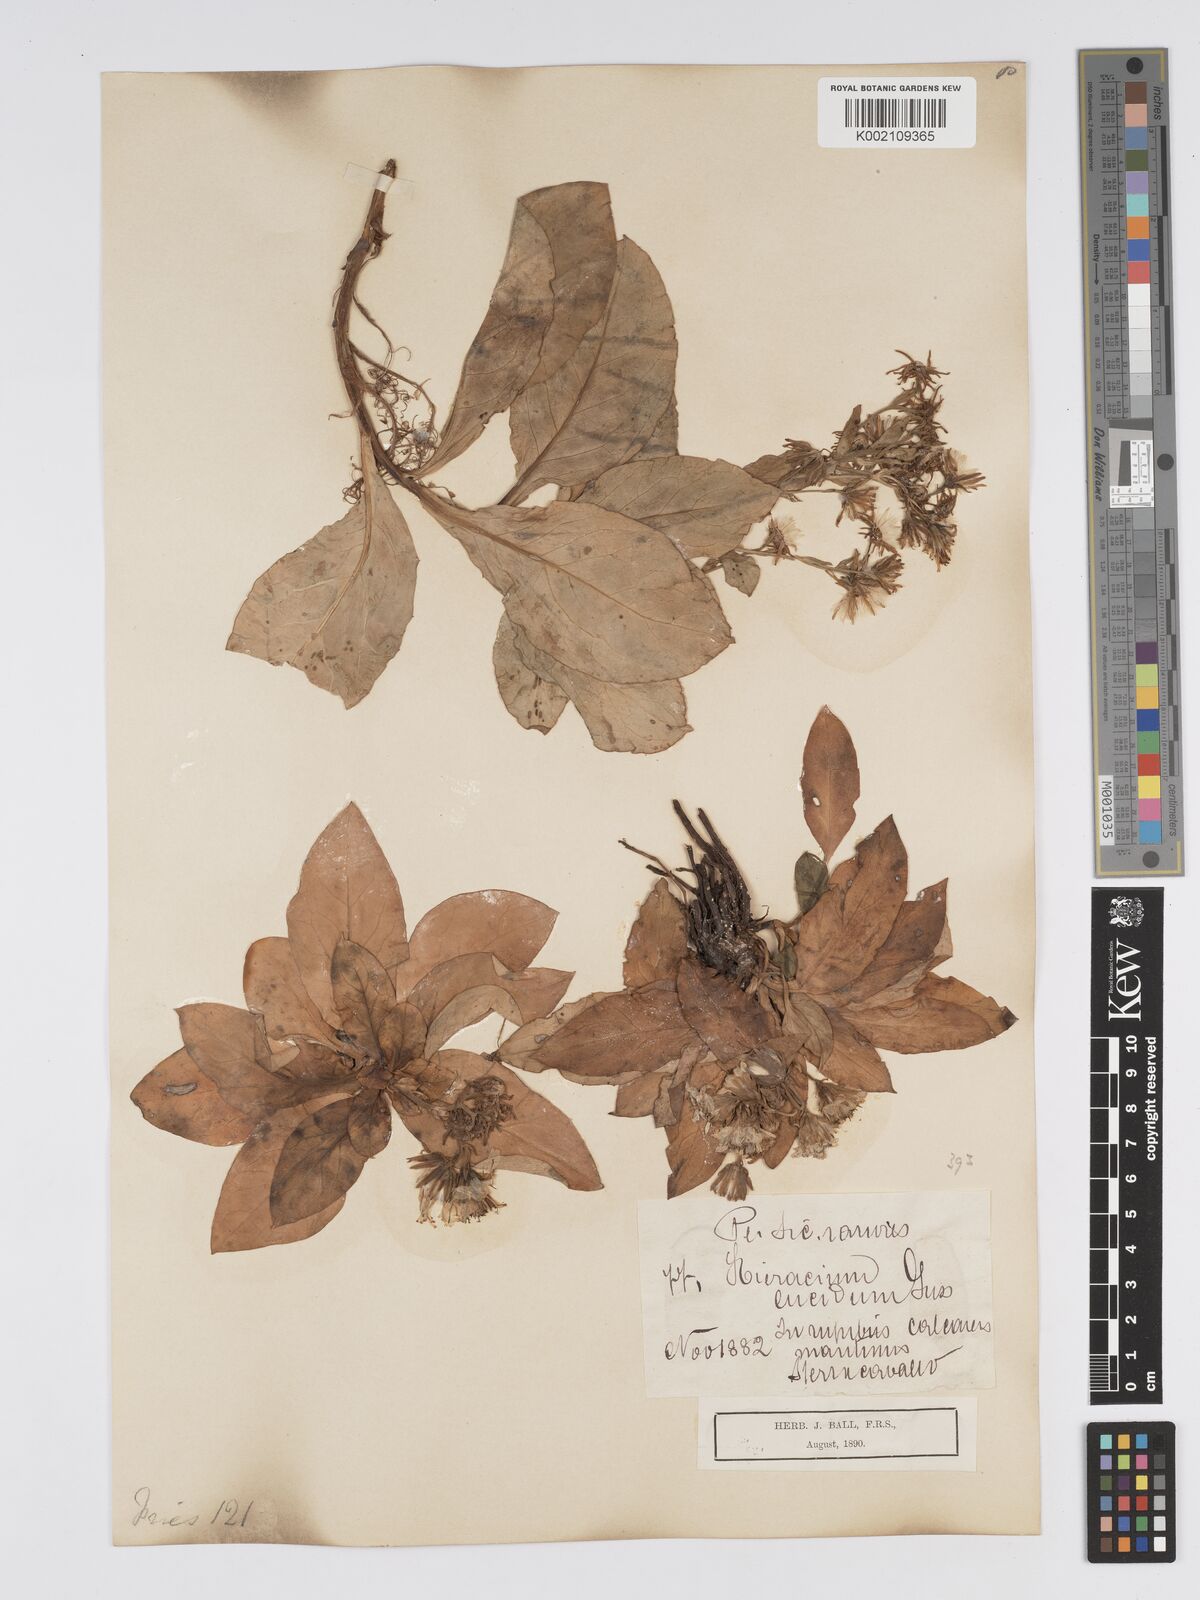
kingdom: Plantae
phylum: Tracheophyta
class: Magnoliopsida
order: Asterales
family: Asteraceae
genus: Hieracium
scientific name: Hieracium lucidum
